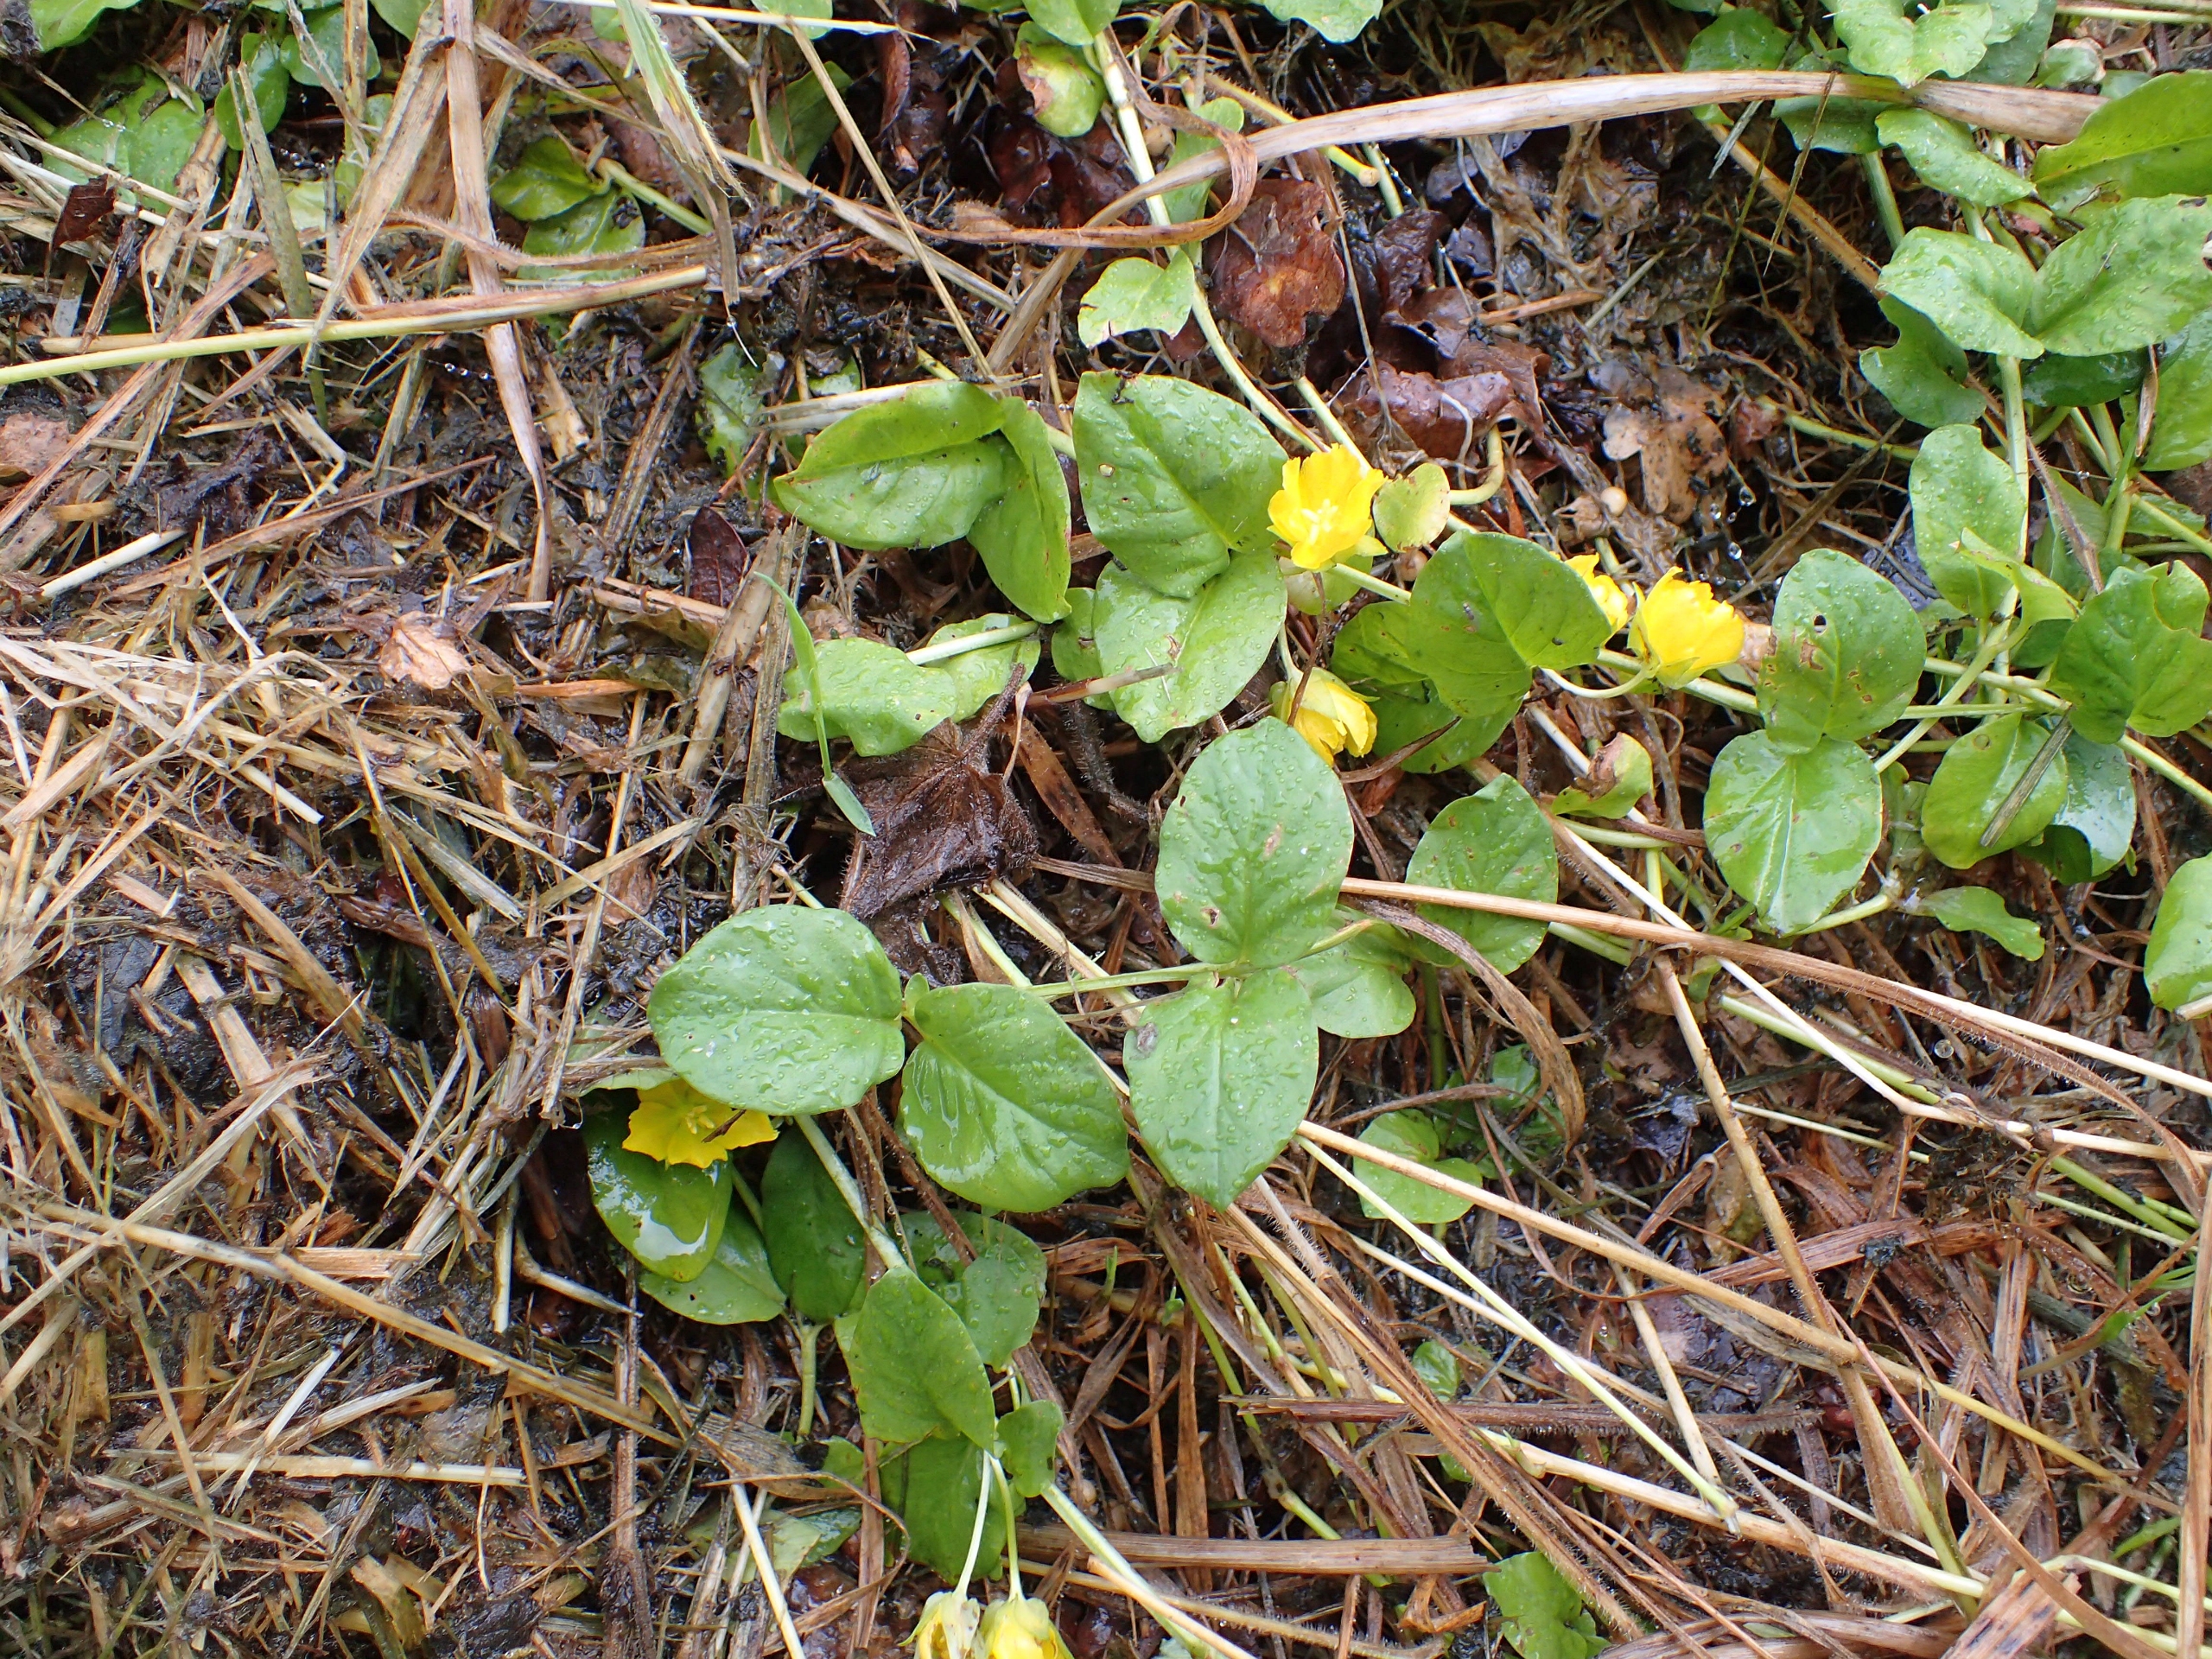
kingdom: Plantae
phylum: Tracheophyta
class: Magnoliopsida
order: Ericales
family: Primulaceae
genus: Lysimachia
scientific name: Lysimachia nummularia
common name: Pengebladet fredløs
